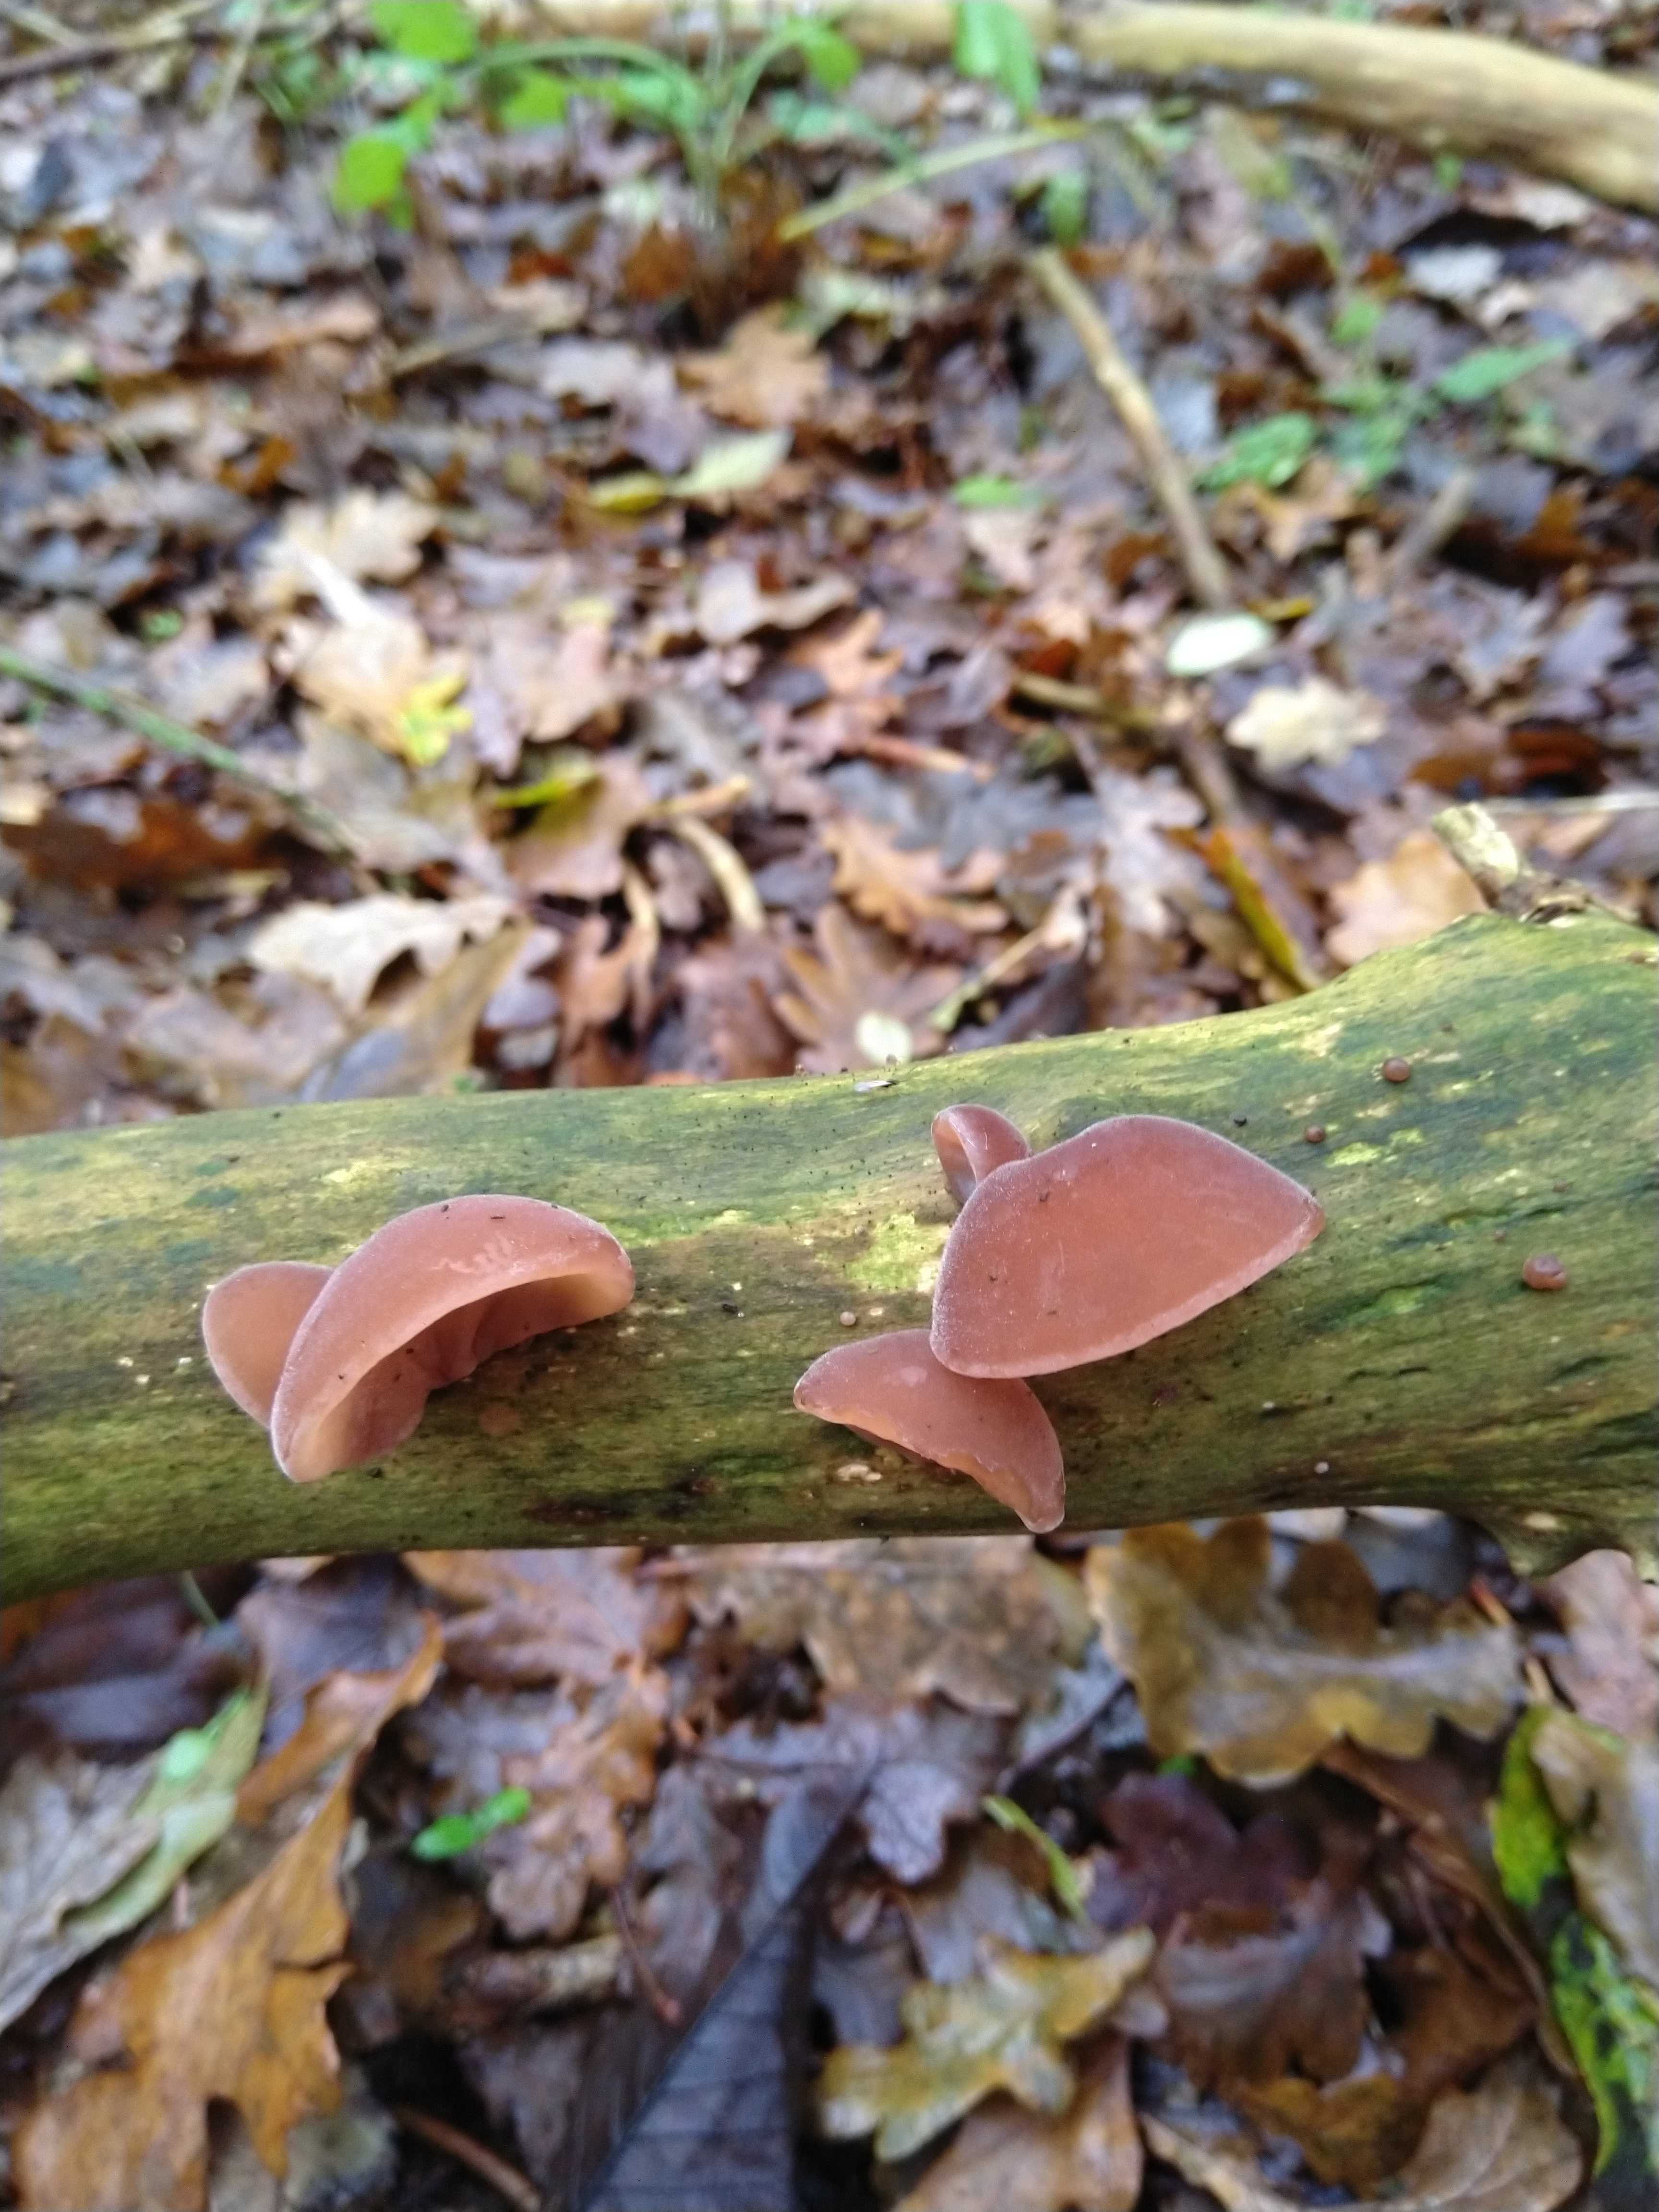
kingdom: Fungi
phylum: Basidiomycota
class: Agaricomycetes
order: Auriculariales
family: Auriculariaceae
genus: Auricularia
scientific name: Auricularia auricula-judae
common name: almindelig judasøre
